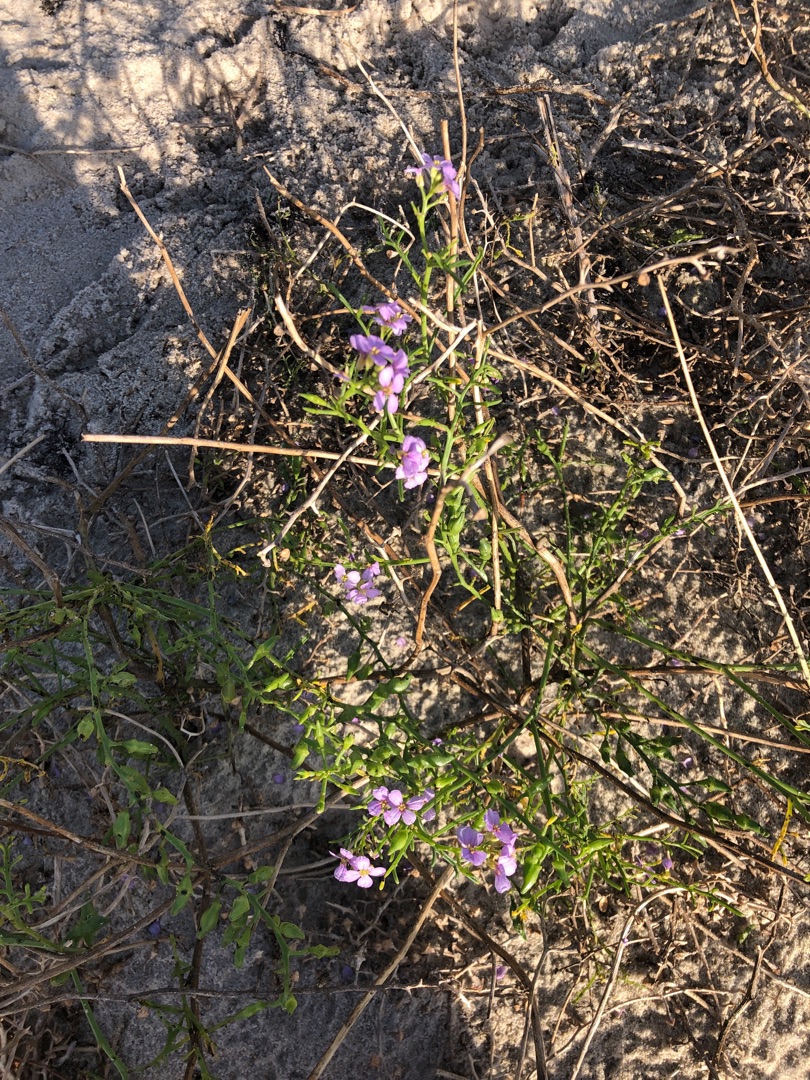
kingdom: Plantae
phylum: Tracheophyta
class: Magnoliopsida
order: Brassicales
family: Brassicaceae
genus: Cakile
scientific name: Cakile maritima
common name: Strandsennep
